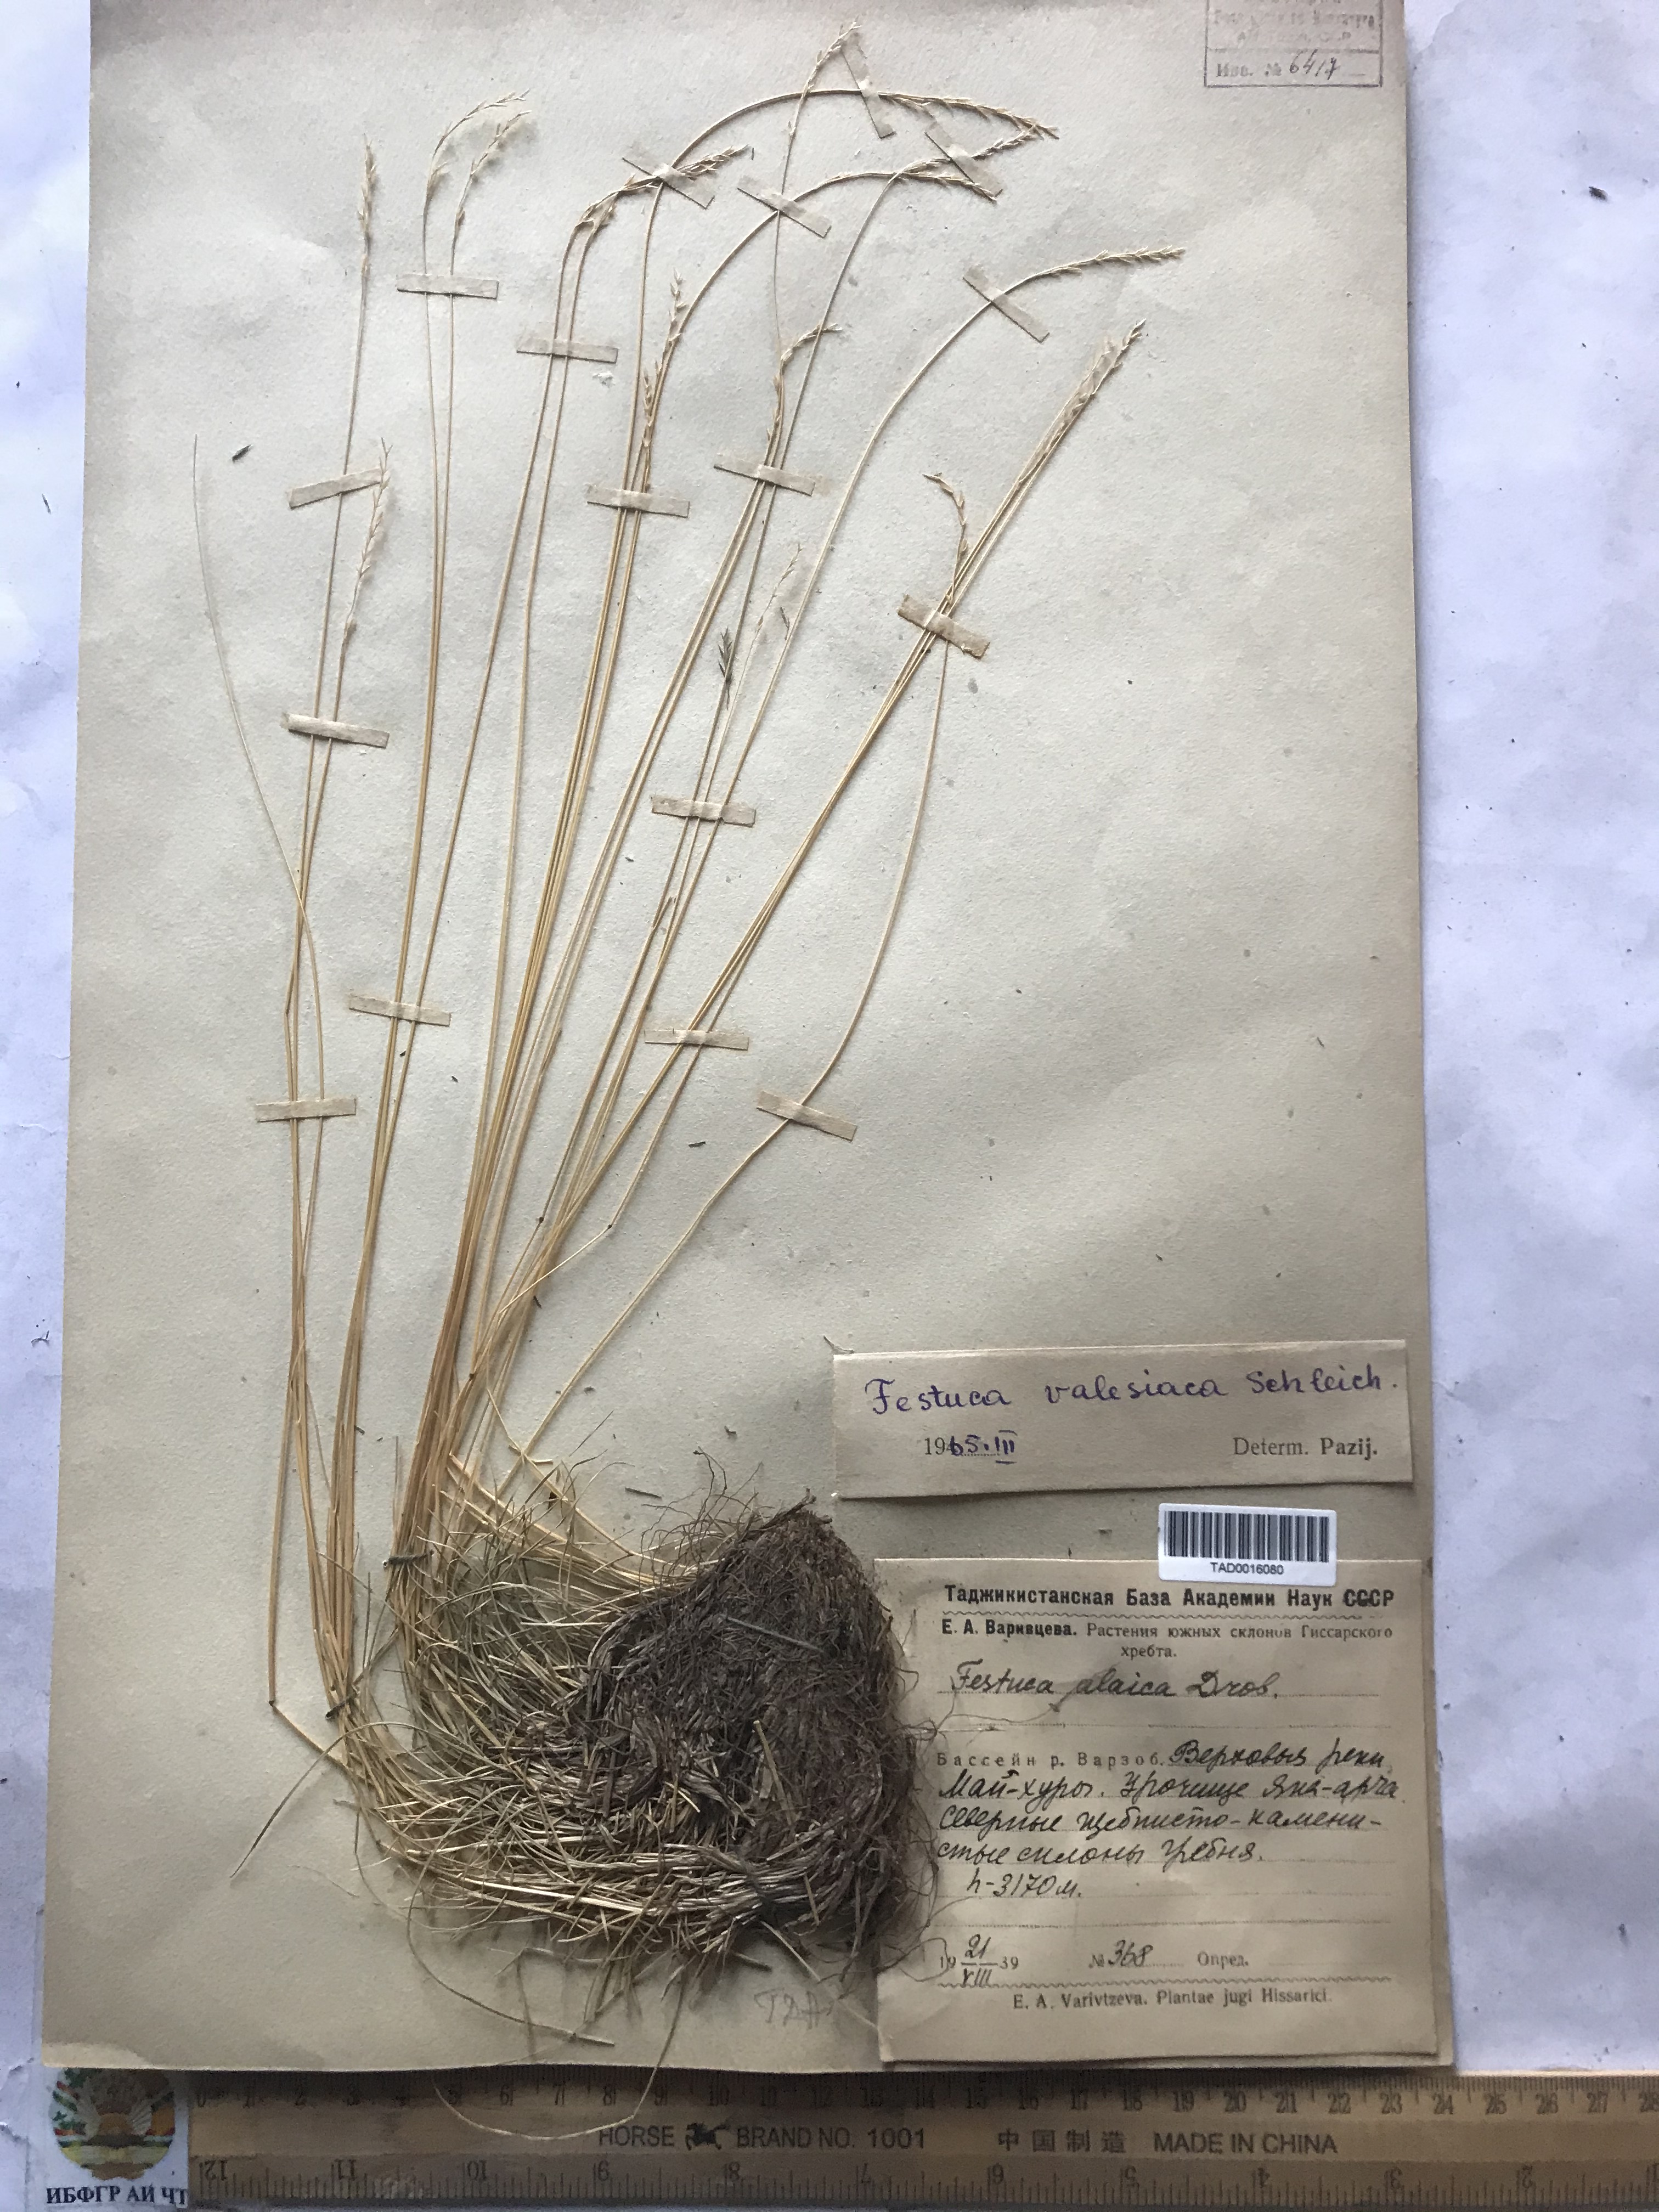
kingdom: Plantae
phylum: Tracheophyta
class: Liliopsida
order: Poales
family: Poaceae
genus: Festuca
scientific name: Festuca valesiaca
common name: Volga fescue
